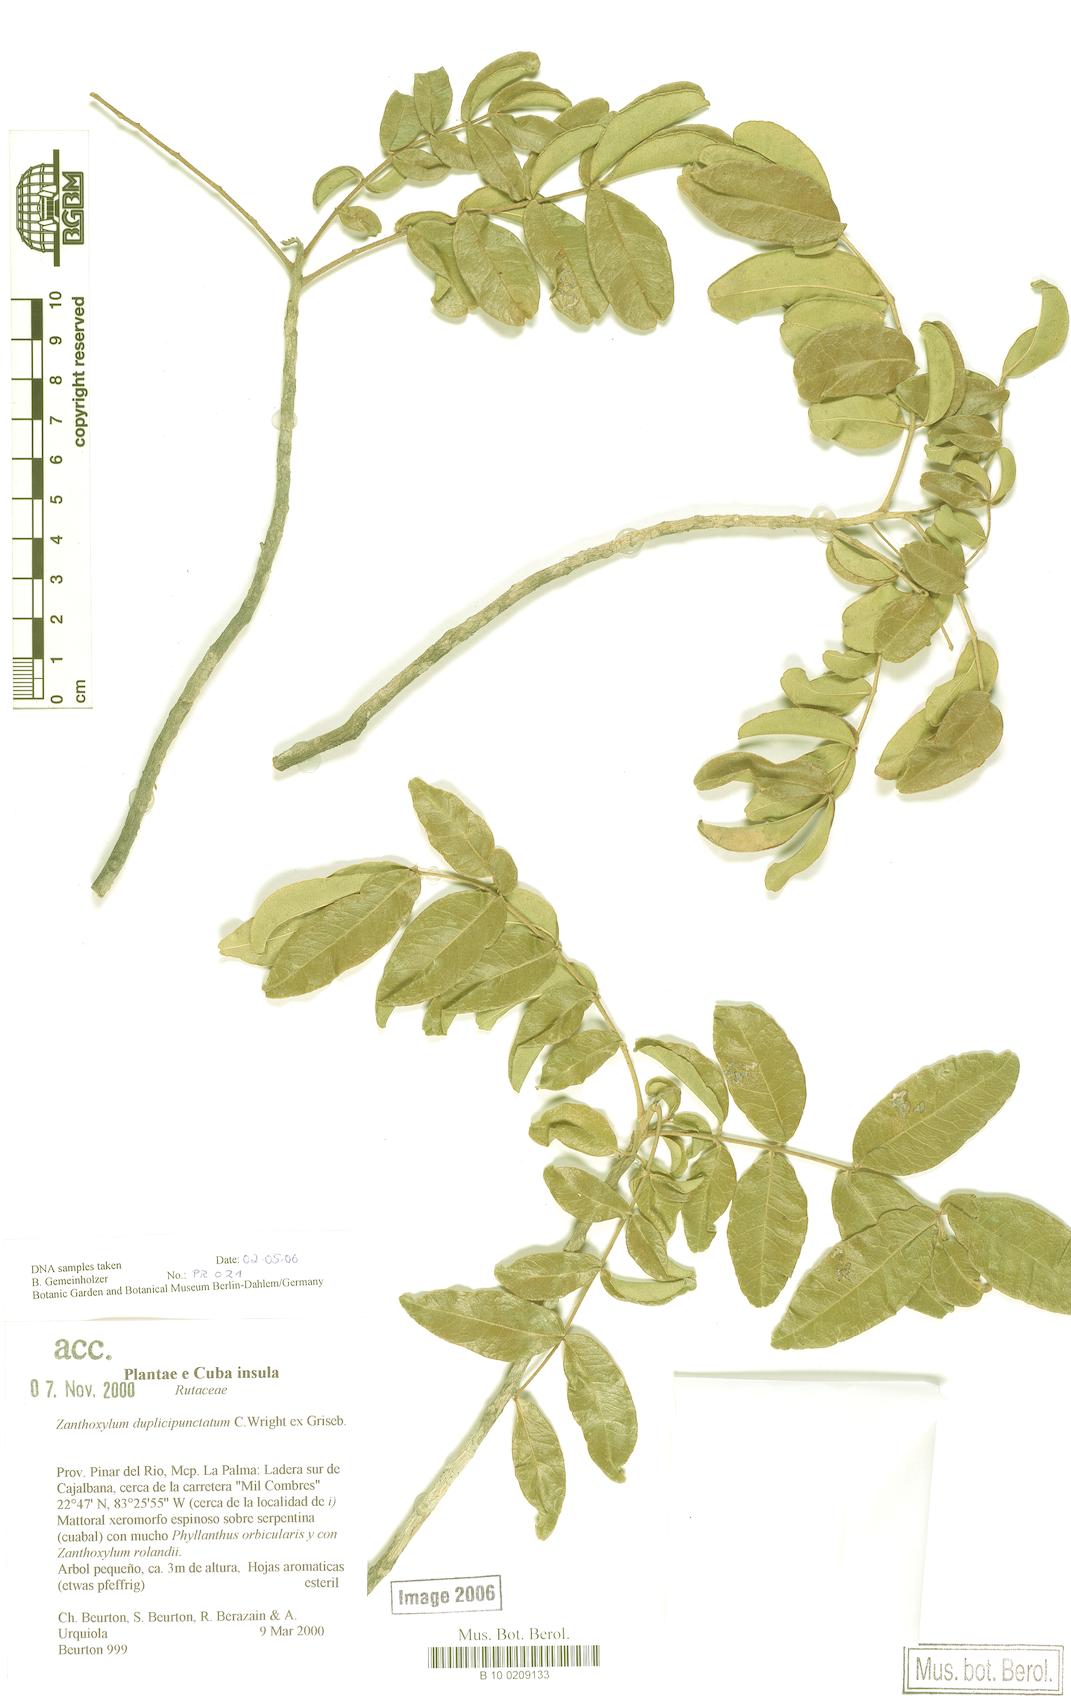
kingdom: Plantae
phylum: Tracheophyta
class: Magnoliopsida
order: Sapindales
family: Rutaceae
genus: Zanthoxylum
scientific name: Zanthoxylum flavum
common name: West indian satinwood
